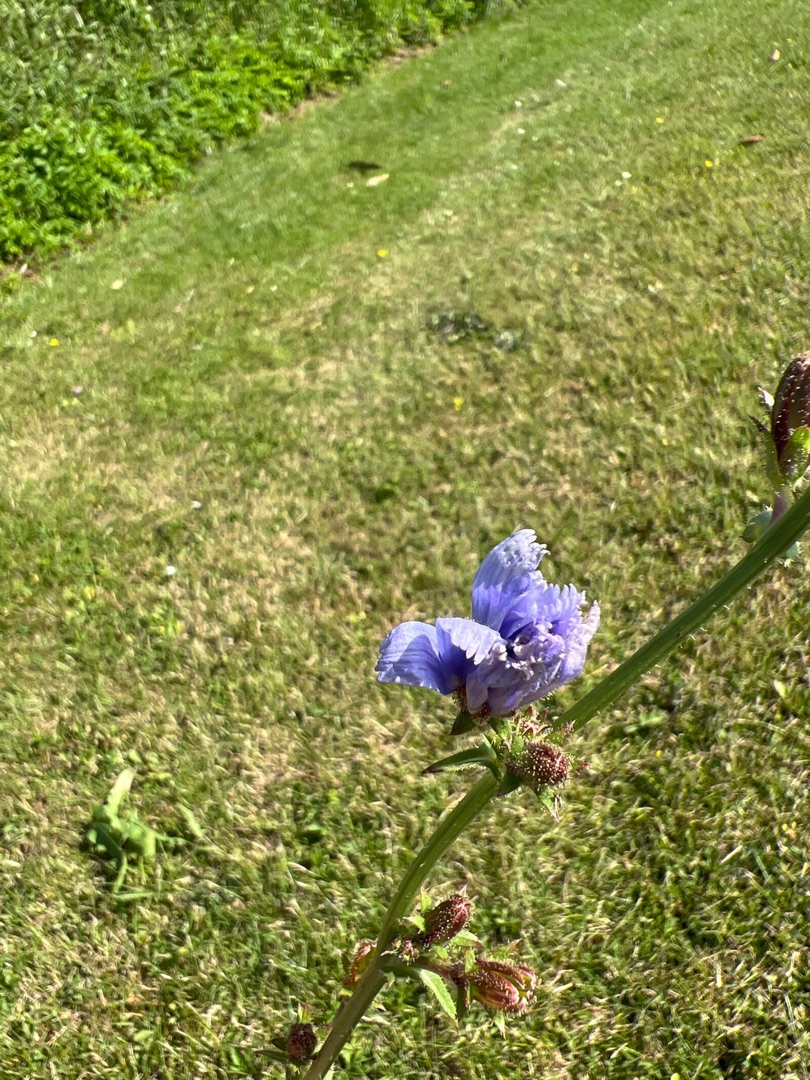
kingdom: Plantae
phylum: Tracheophyta
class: Magnoliopsida
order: Asterales
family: Asteraceae
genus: Cichorium
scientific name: Cichorium intybus
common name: Cikorie
